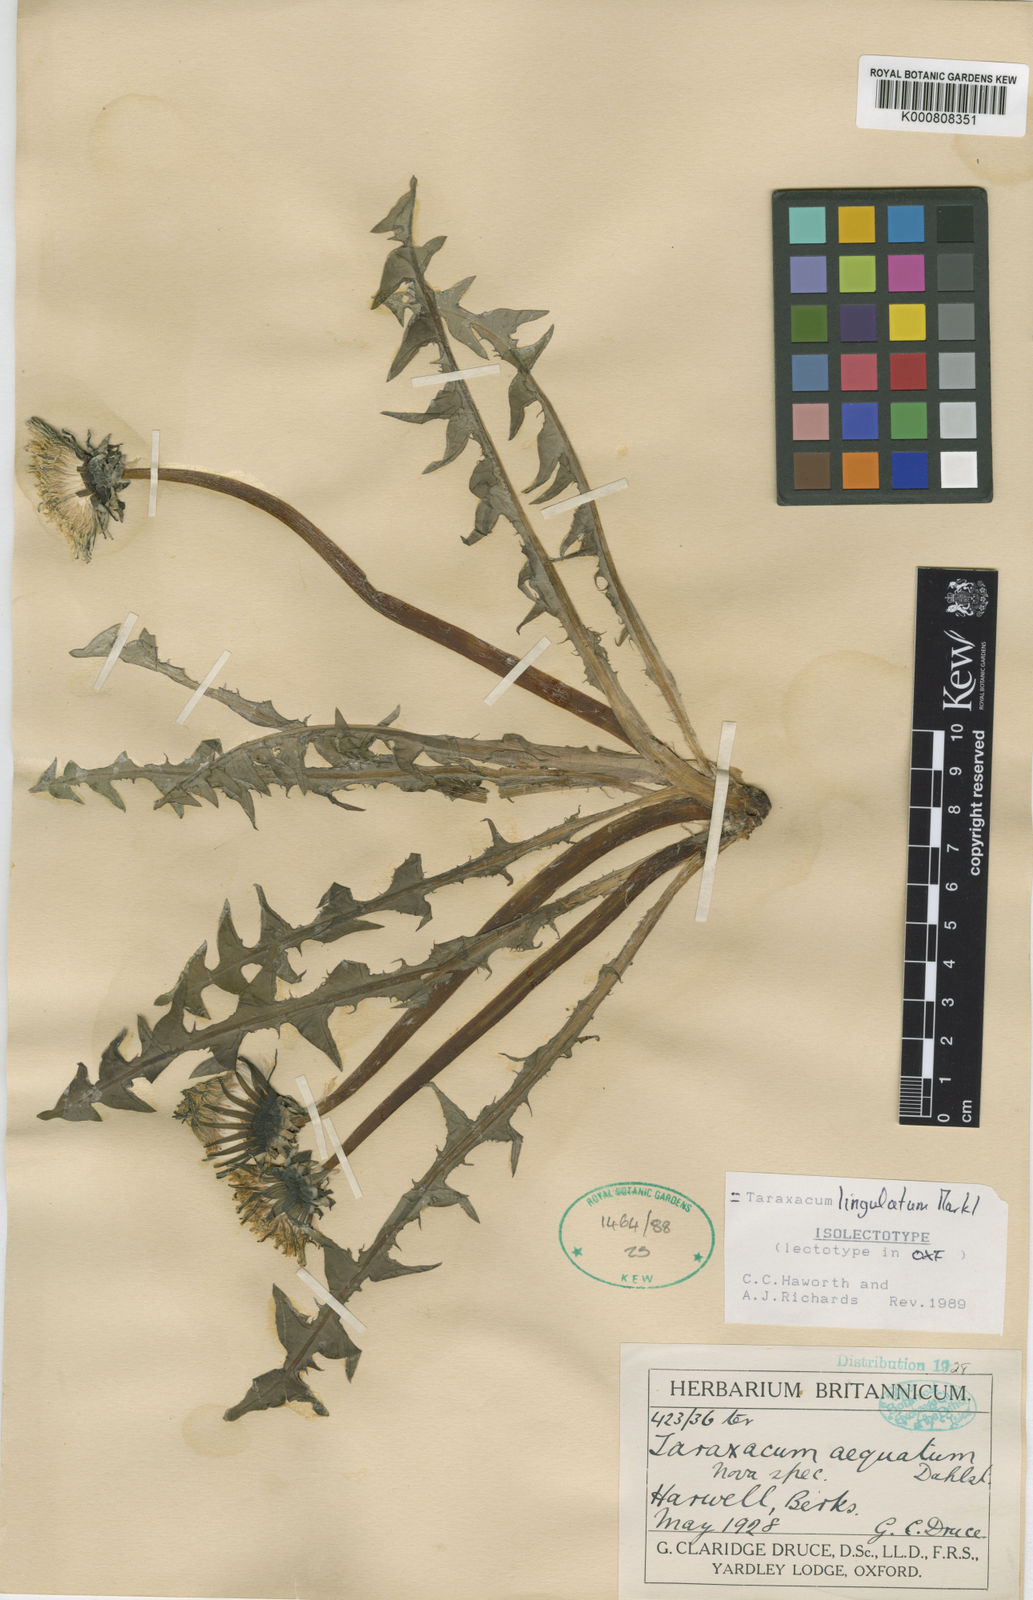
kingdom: Plantae
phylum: Tracheophyta
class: Magnoliopsida
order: Asterales
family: Asteraceae
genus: Taraxacum
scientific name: Taraxacum lingulatum
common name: Long-bracted dandelion
